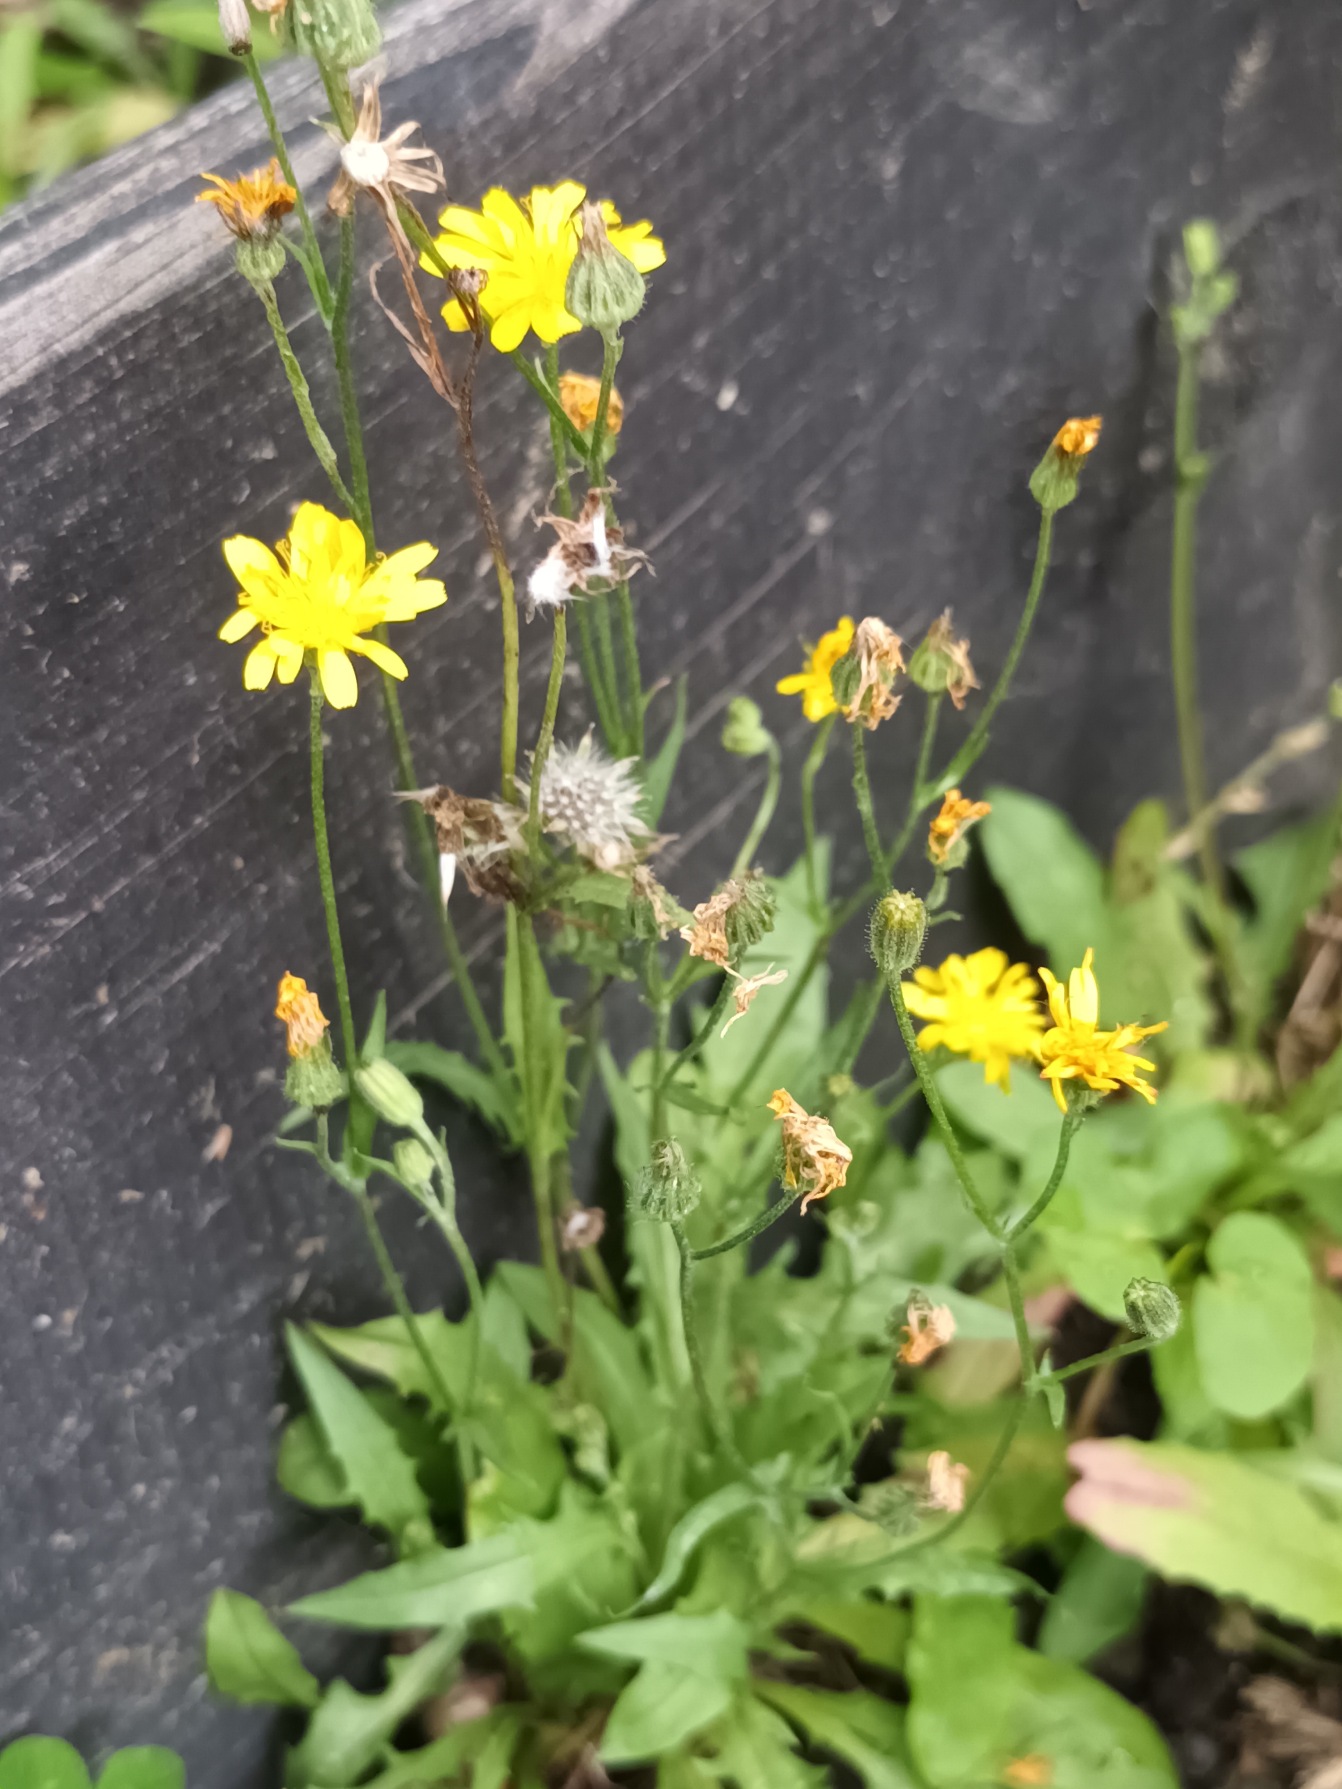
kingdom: Plantae
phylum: Tracheophyta
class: Magnoliopsida
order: Asterales
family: Asteraceae
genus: Crepis
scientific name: Crepis capillaris
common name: Grøn høgeskæg
